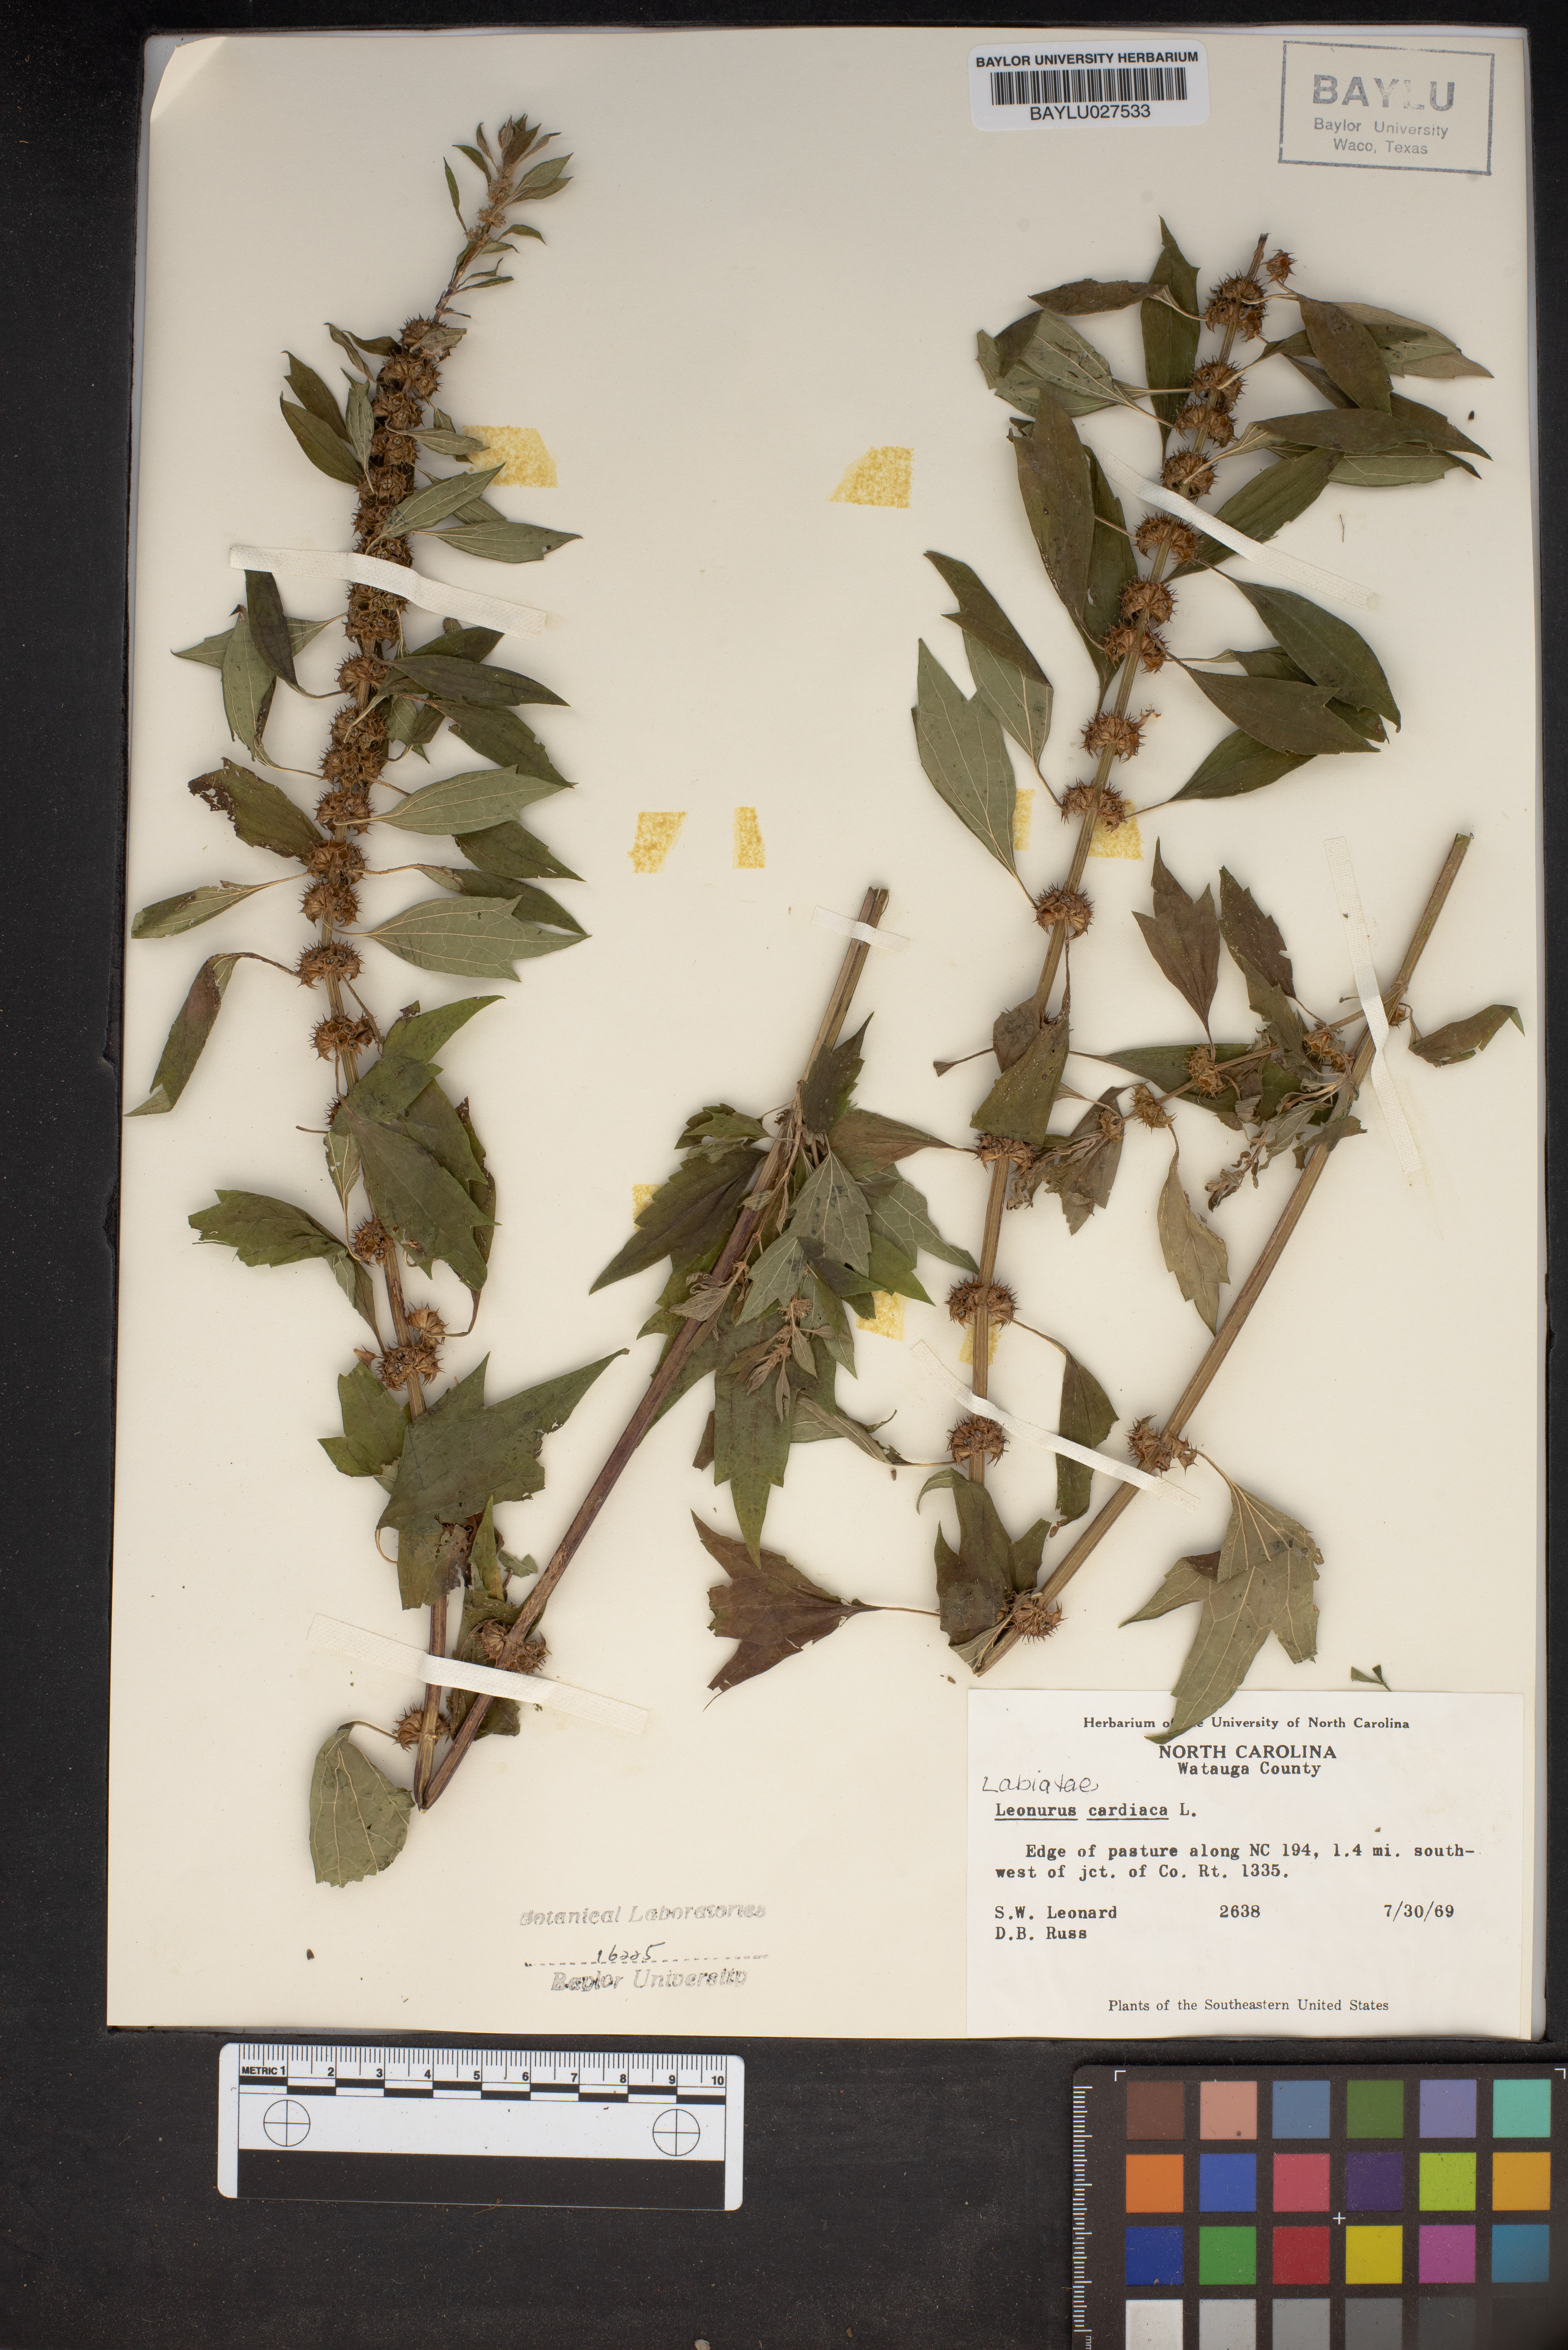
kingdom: Plantae
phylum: Tracheophyta
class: Magnoliopsida
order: Lamiales
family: Lamiaceae
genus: Leonurus
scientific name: Leonurus cardiaca
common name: Motherwort
